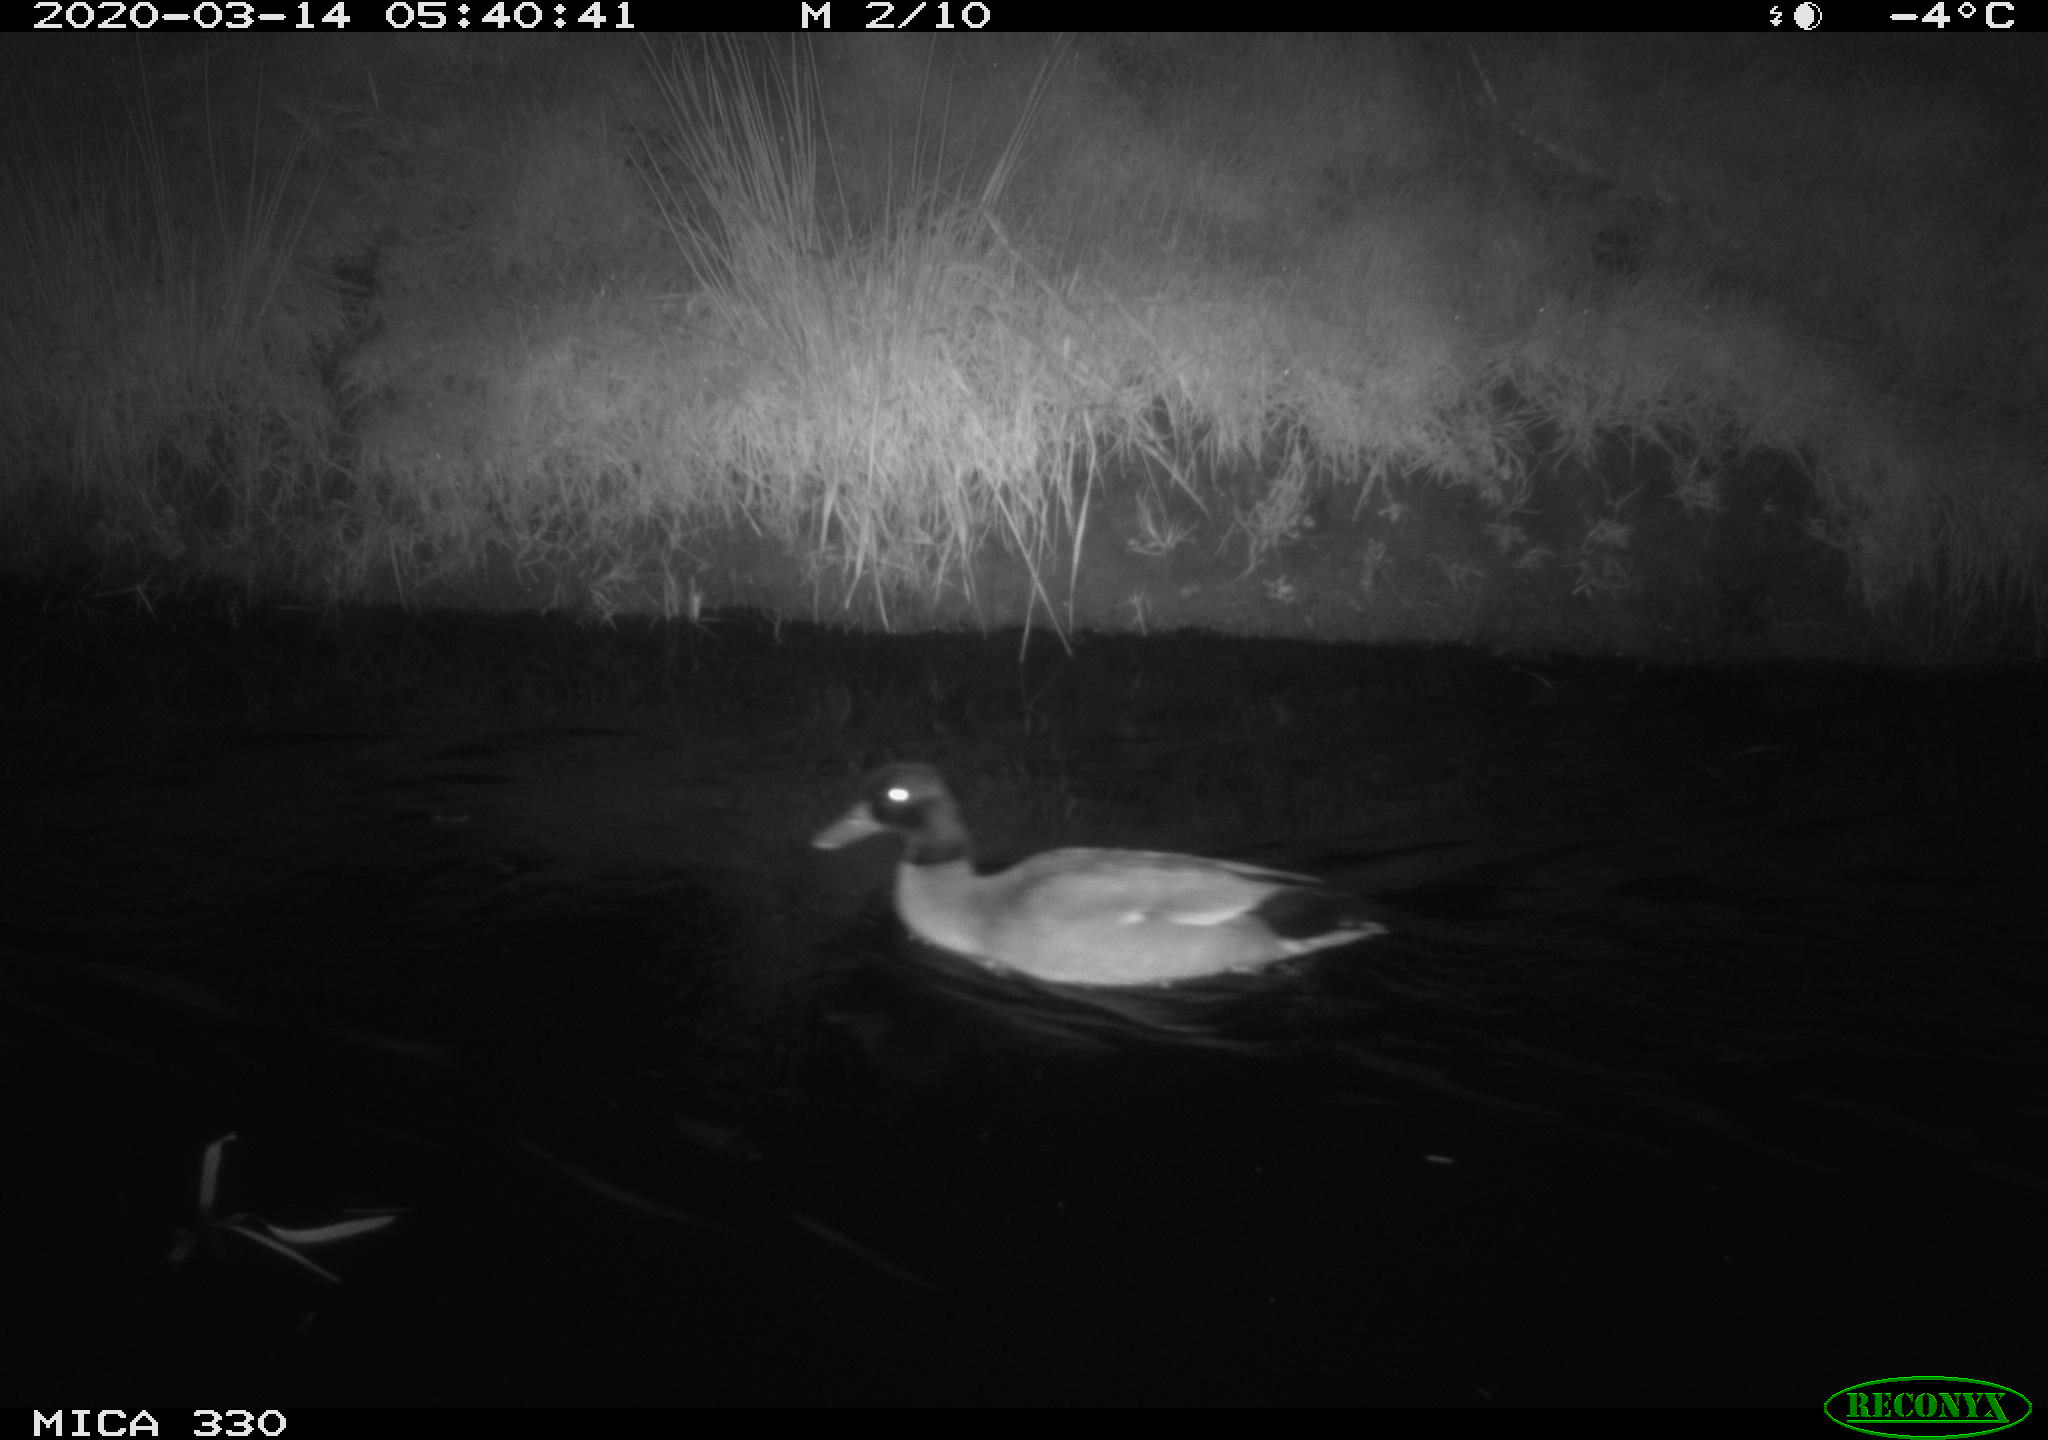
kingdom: Animalia
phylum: Chordata
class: Aves
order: Anseriformes
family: Anatidae
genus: Anas
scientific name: Anas platyrhynchos
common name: Mallard
